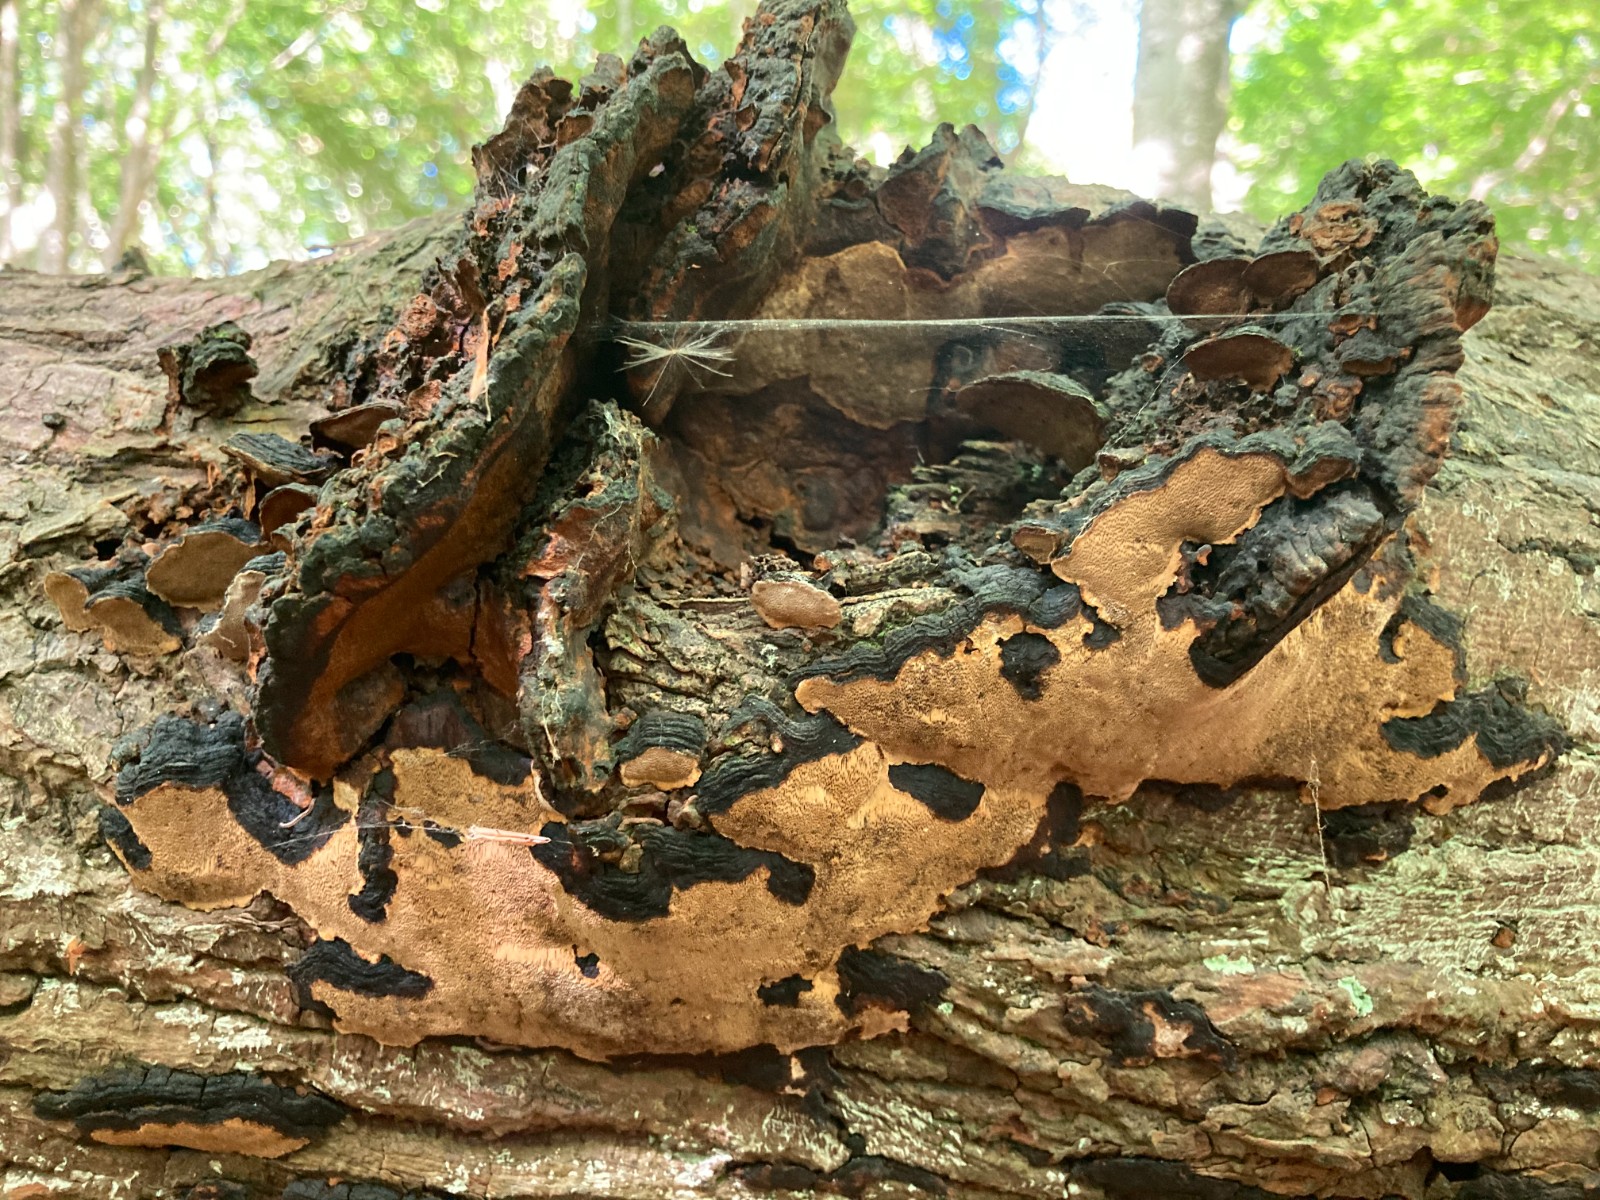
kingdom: Fungi
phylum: Basidiomycota
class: Agaricomycetes
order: Hymenochaetales
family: Hymenochaetaceae
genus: Phellinopsis
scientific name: Phellinopsis conchata
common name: pile-ildporesvamp
